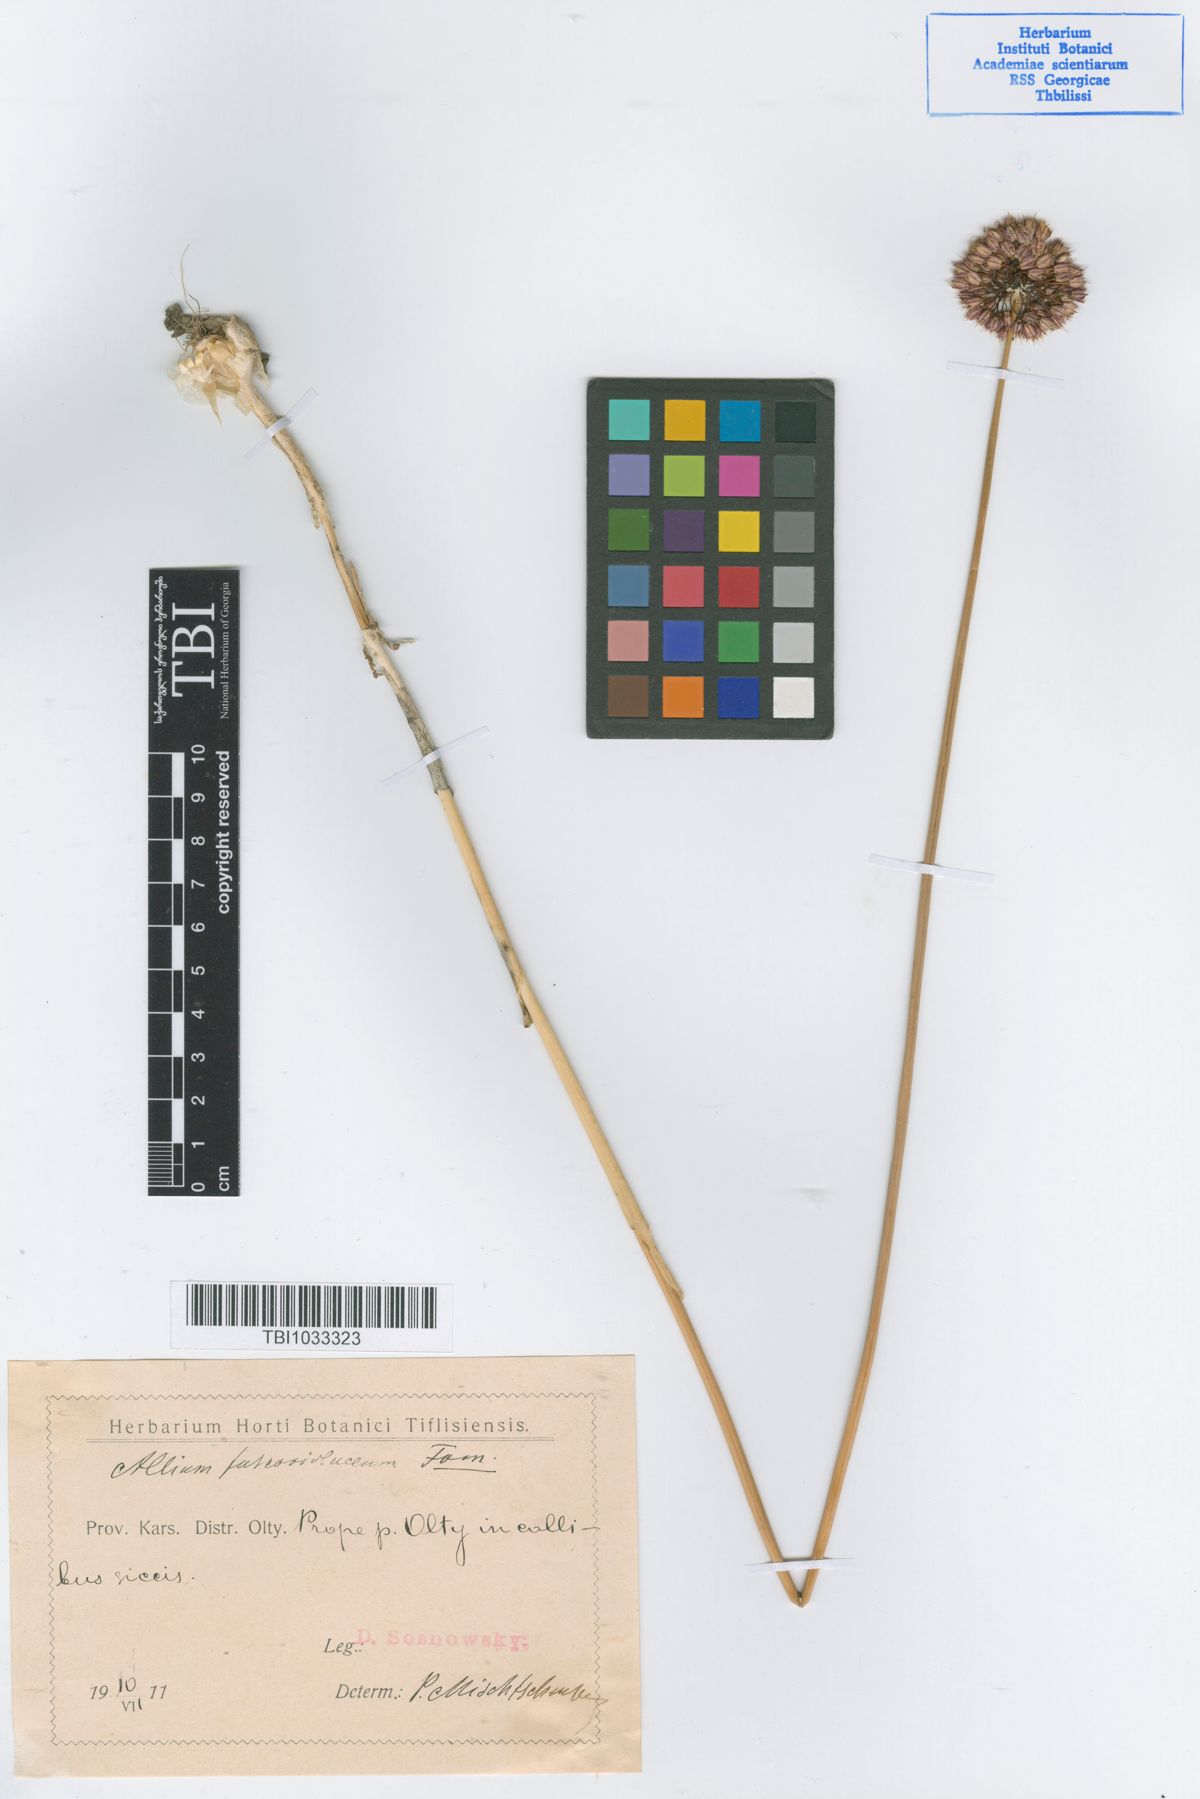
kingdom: Plantae
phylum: Tracheophyta
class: Liliopsida
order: Asparagales
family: Amaryllidaceae
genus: Allium
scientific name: Allium fuscoviolaceum
